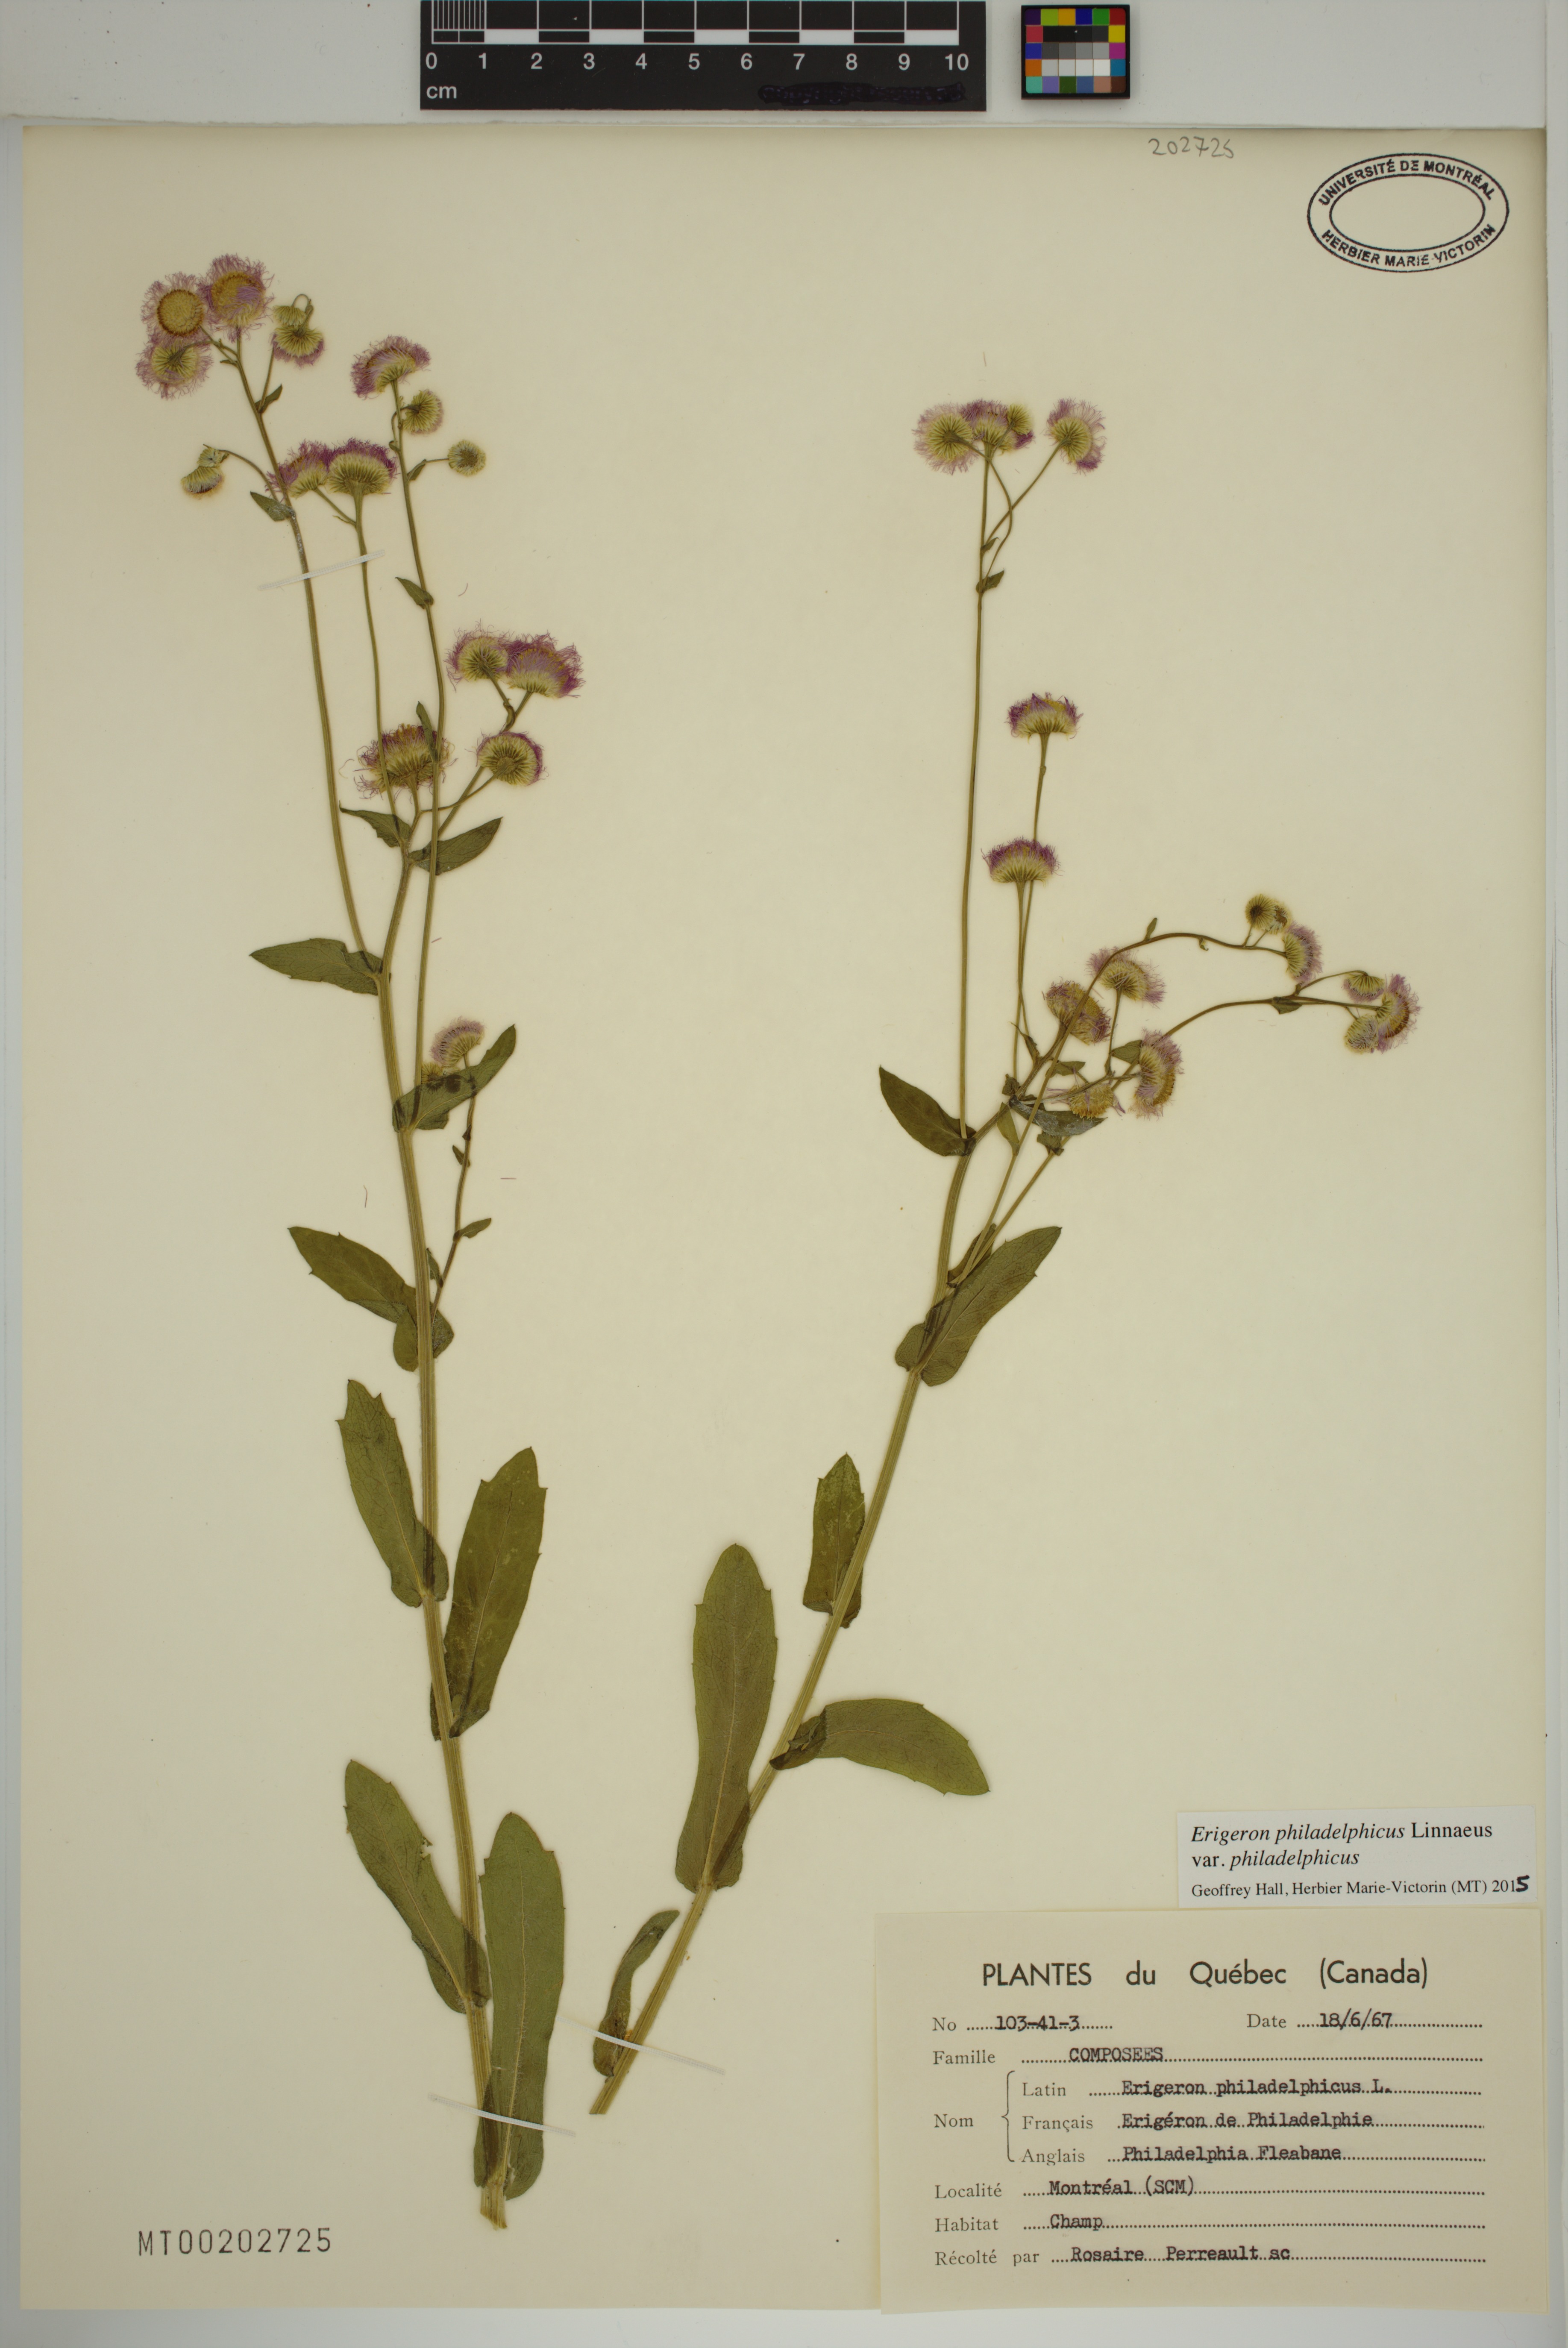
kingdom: Plantae
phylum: Tracheophyta
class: Magnoliopsida
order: Asterales
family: Asteraceae
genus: Erigeron
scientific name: Erigeron philadelphicus
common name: Robin's-plantain
